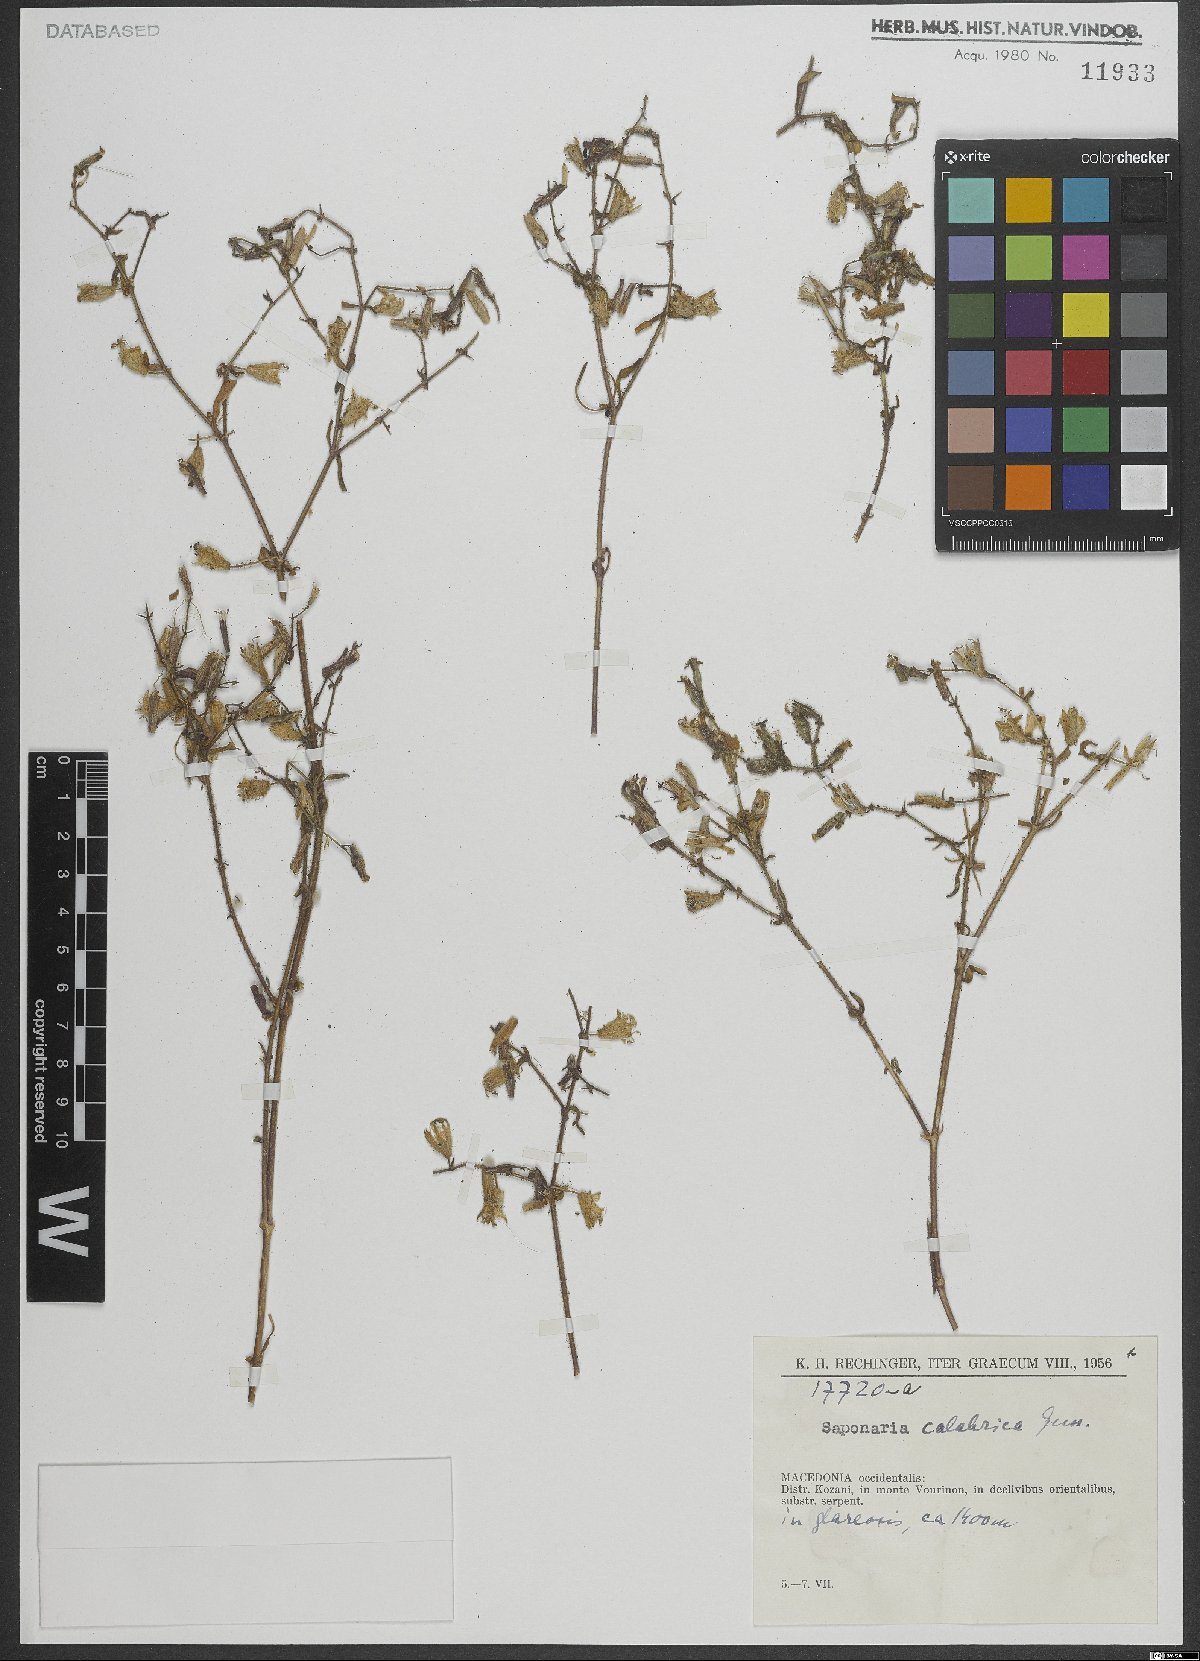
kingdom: Plantae
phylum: Tracheophyta
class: Magnoliopsida
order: Caryophyllales
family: Caryophyllaceae
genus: Saponaria
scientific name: Saponaria calabrica
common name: Adriatic soapwort
